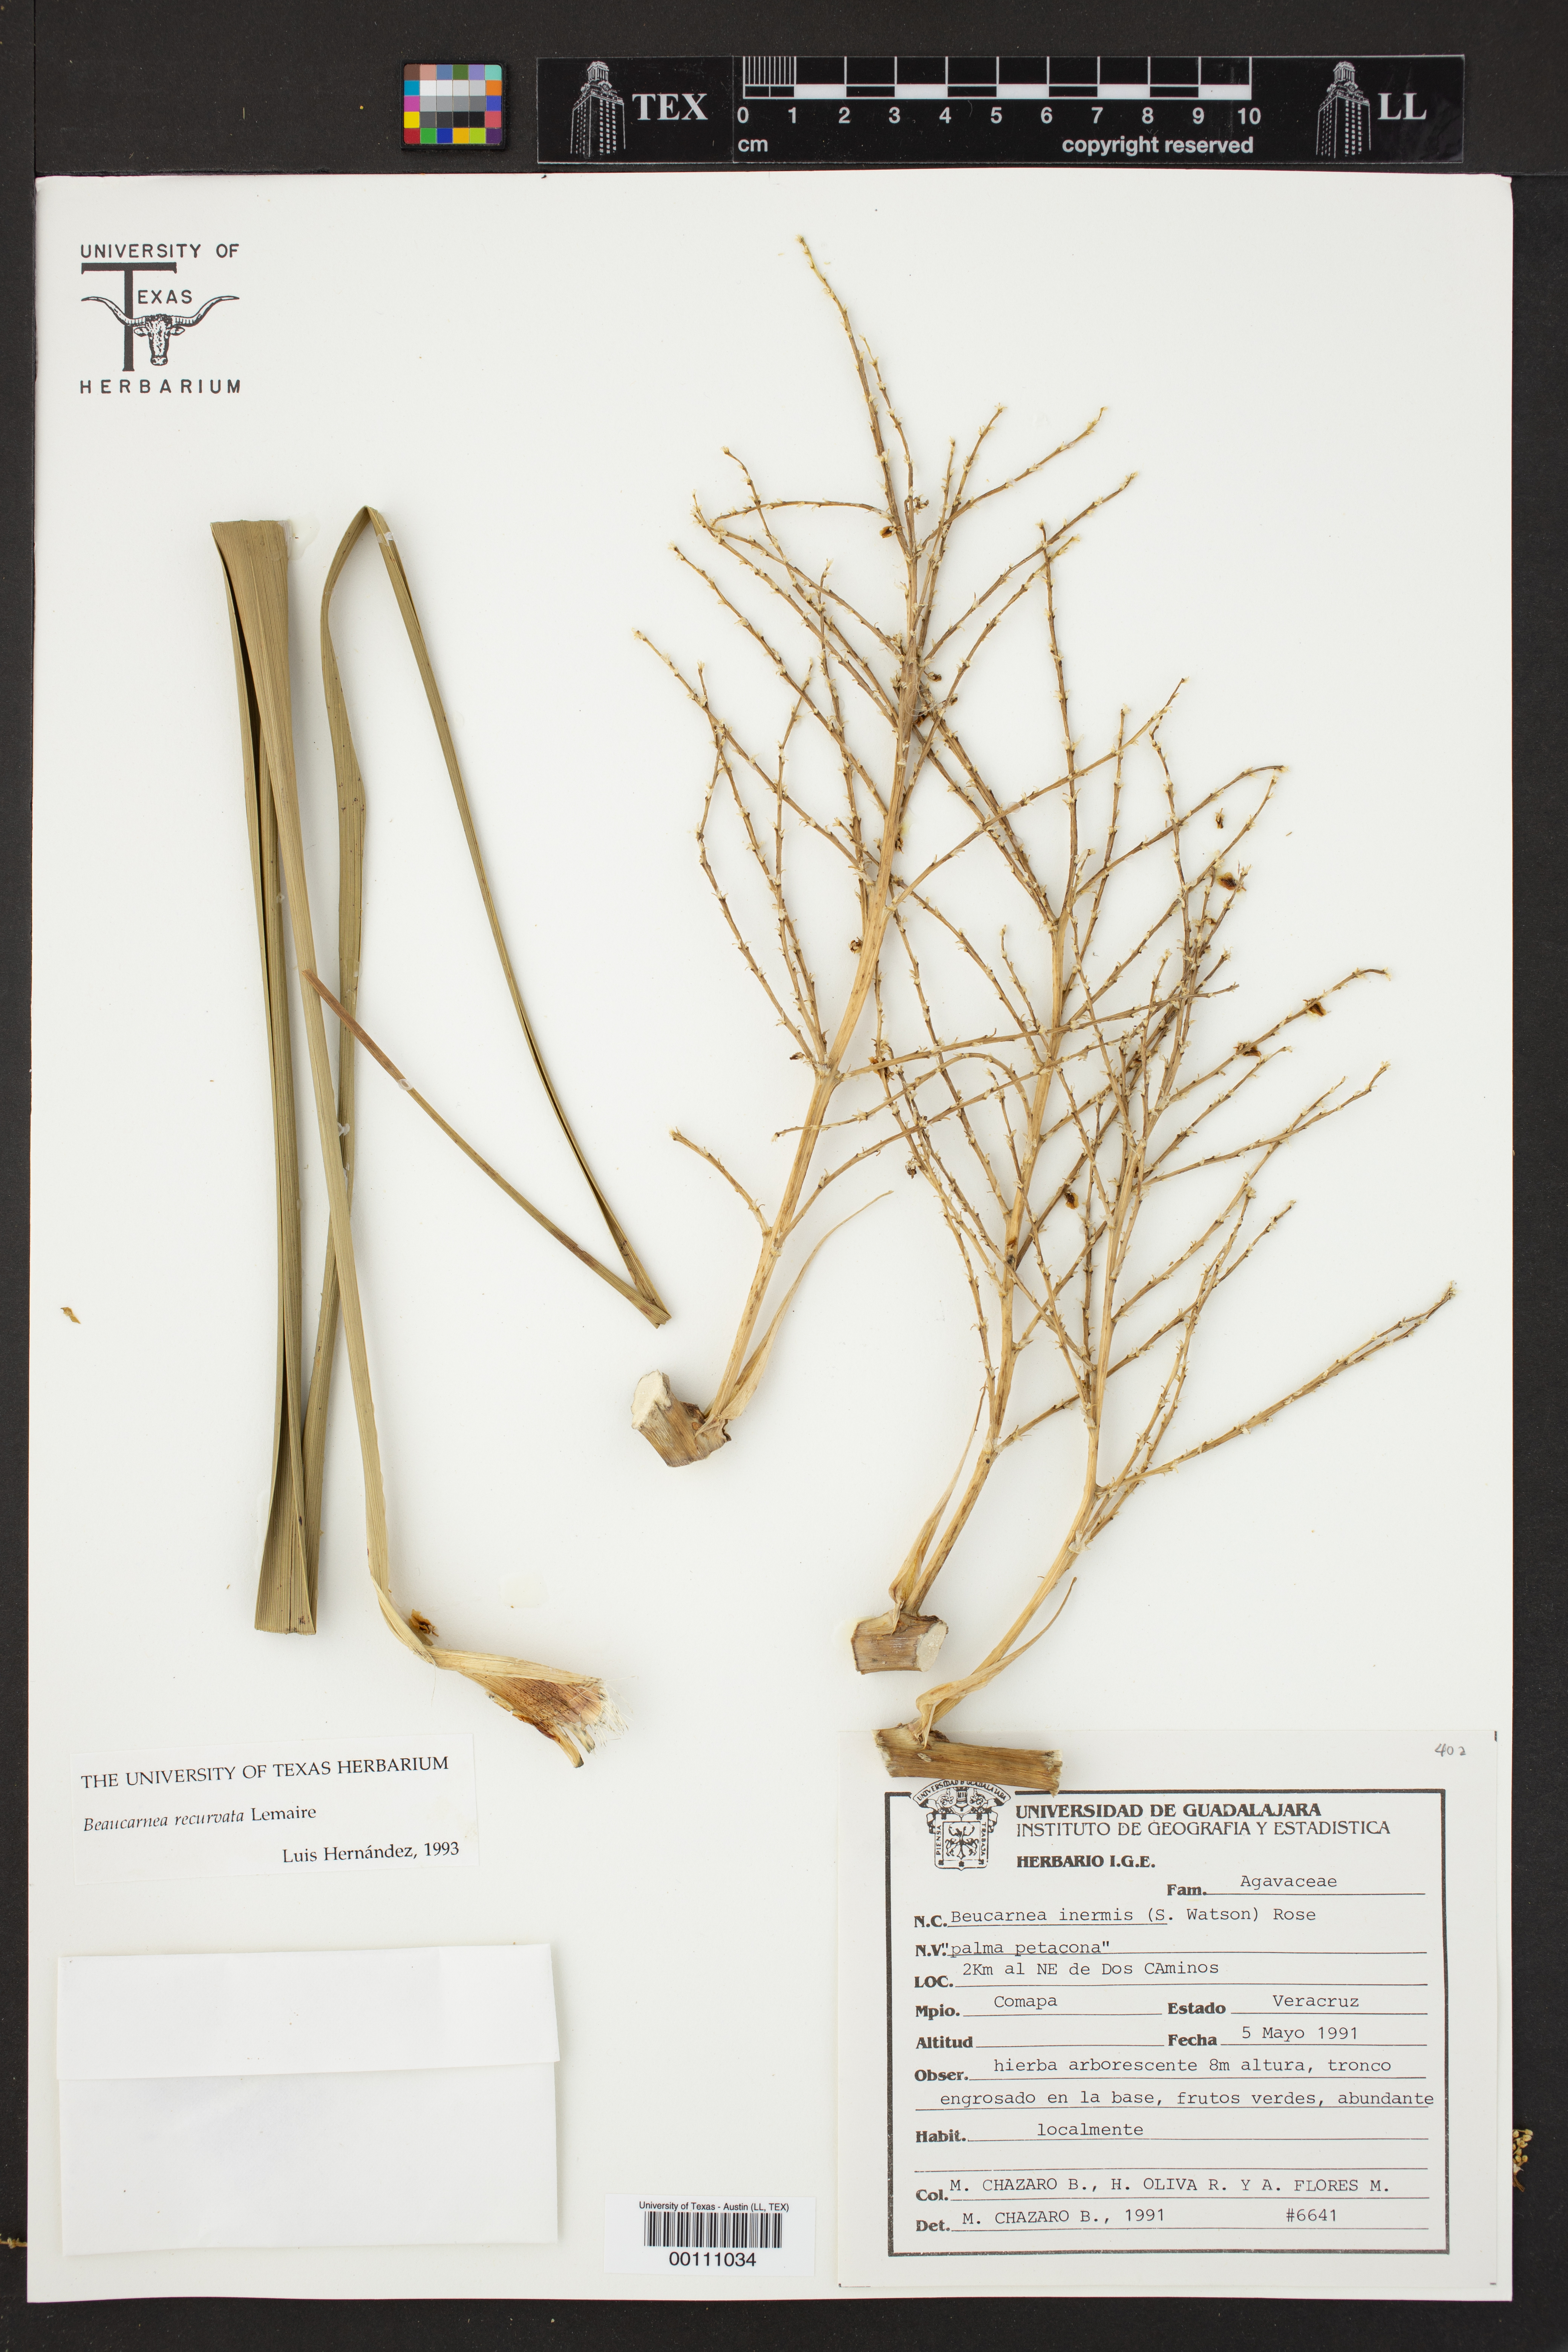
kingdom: Plantae
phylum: Tracheophyta
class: Liliopsida
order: Asparagales
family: Asparagaceae
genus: Beaucarnea
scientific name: Beaucarnea recurvata
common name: Stripy  ponytail
